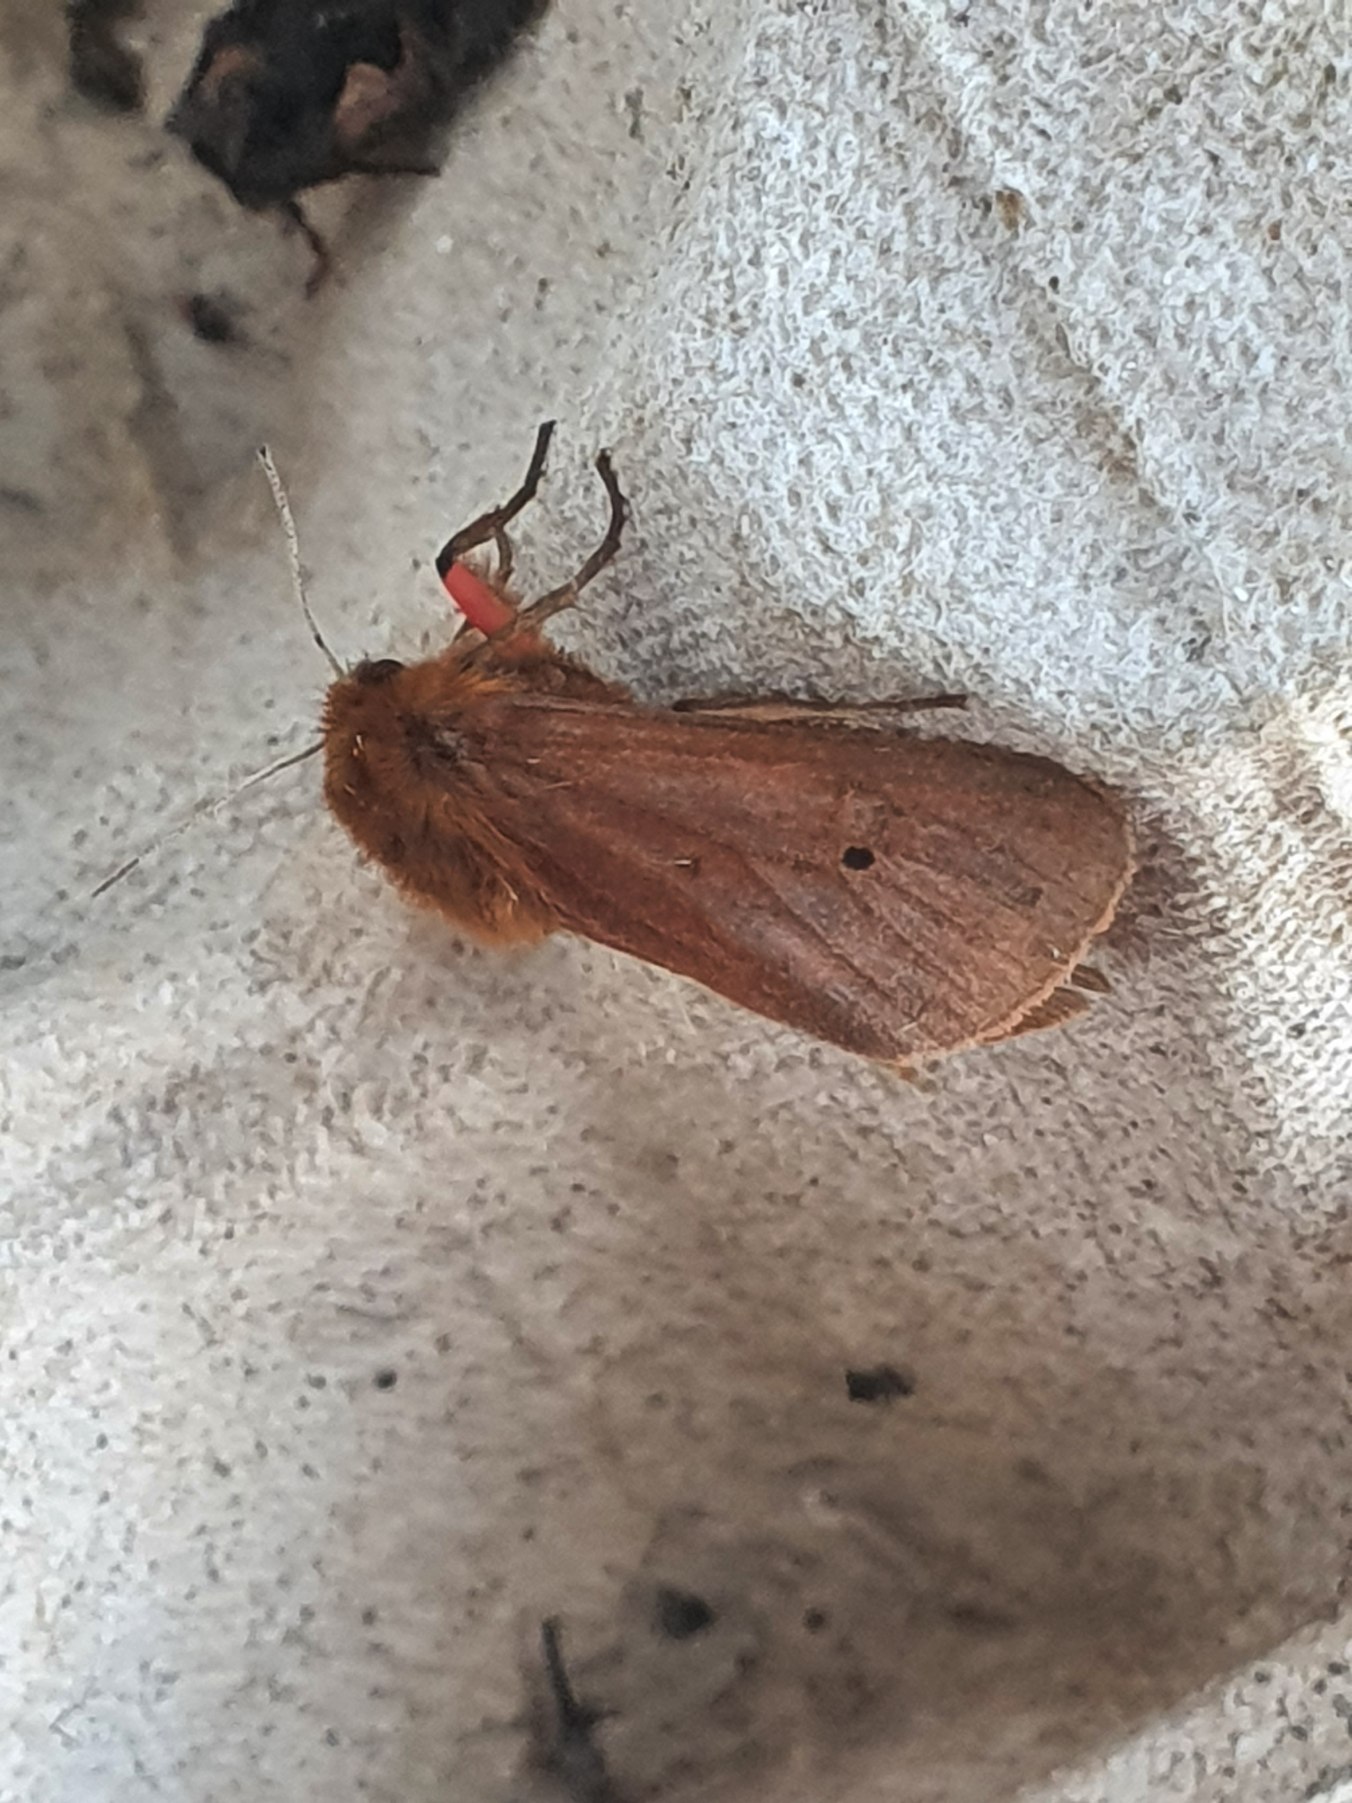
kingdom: Animalia
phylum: Arthropoda
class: Insecta
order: Lepidoptera
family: Erebidae
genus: Phragmatobia
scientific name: Phragmatobia fuliginosa
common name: Kanelbjørn
